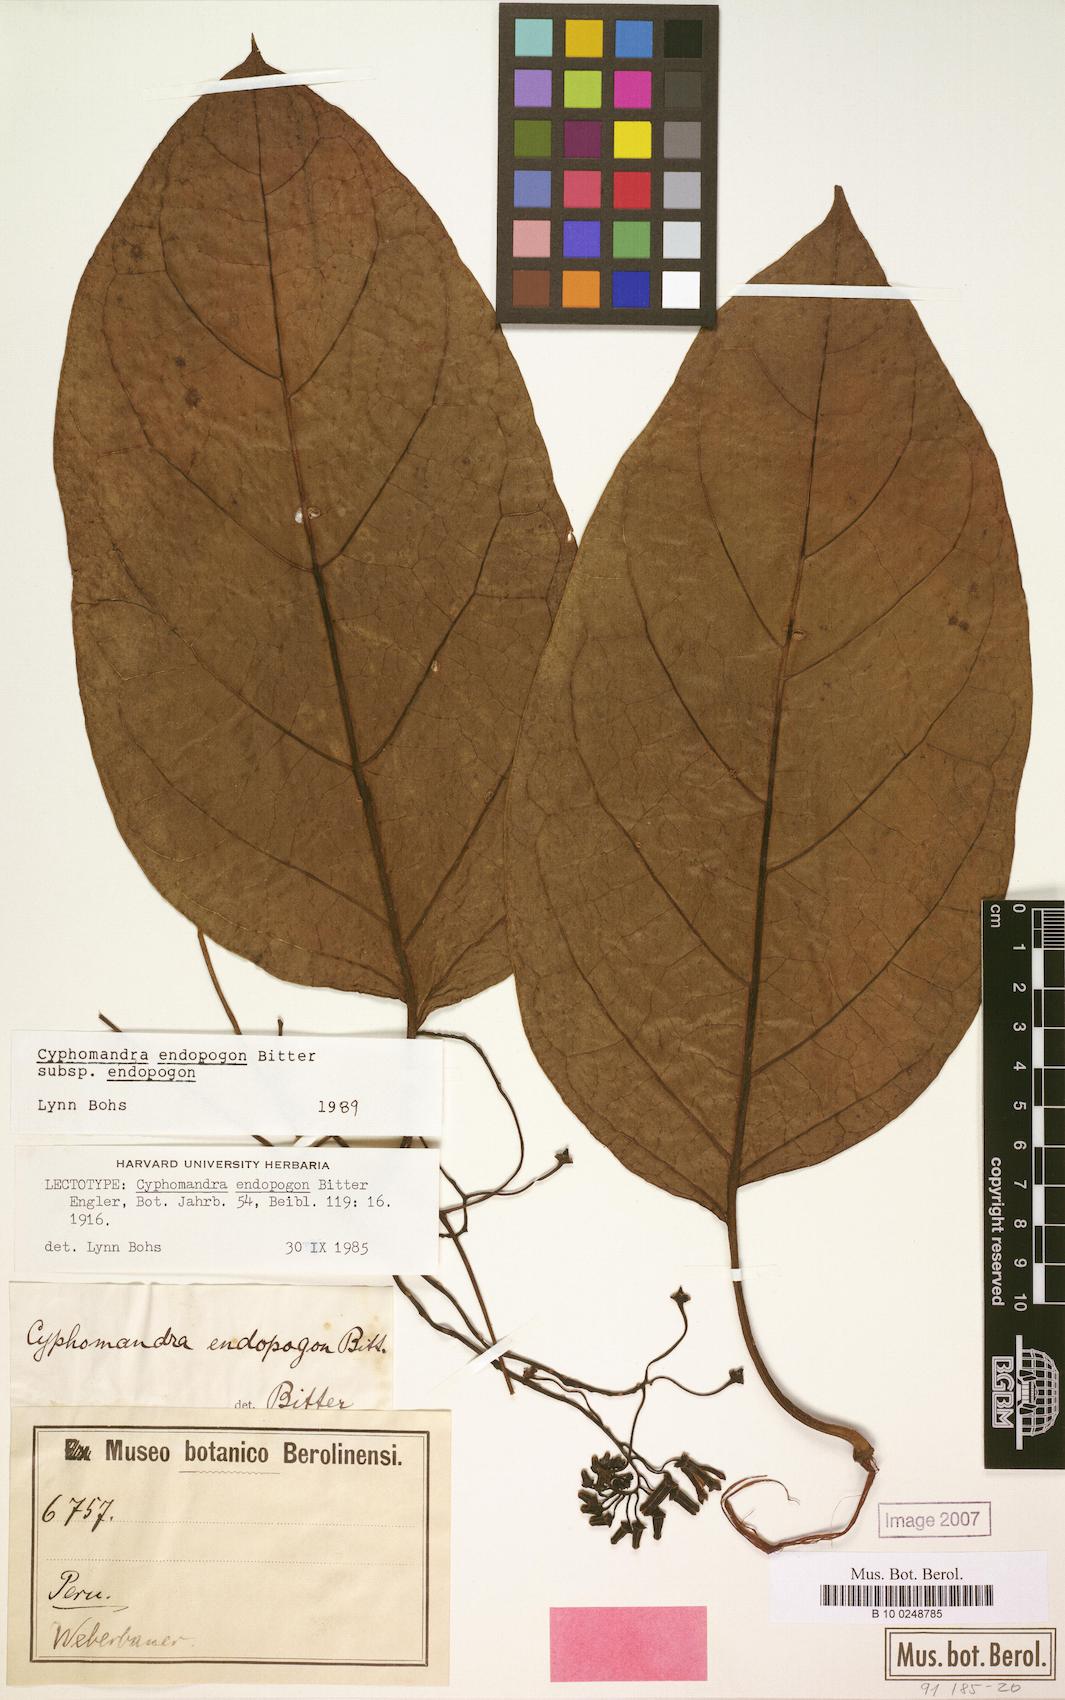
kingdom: Plantae
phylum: Tracheophyta
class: Magnoliopsida
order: Solanales
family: Solanaceae
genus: Solanum
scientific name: Solanum endopogon
